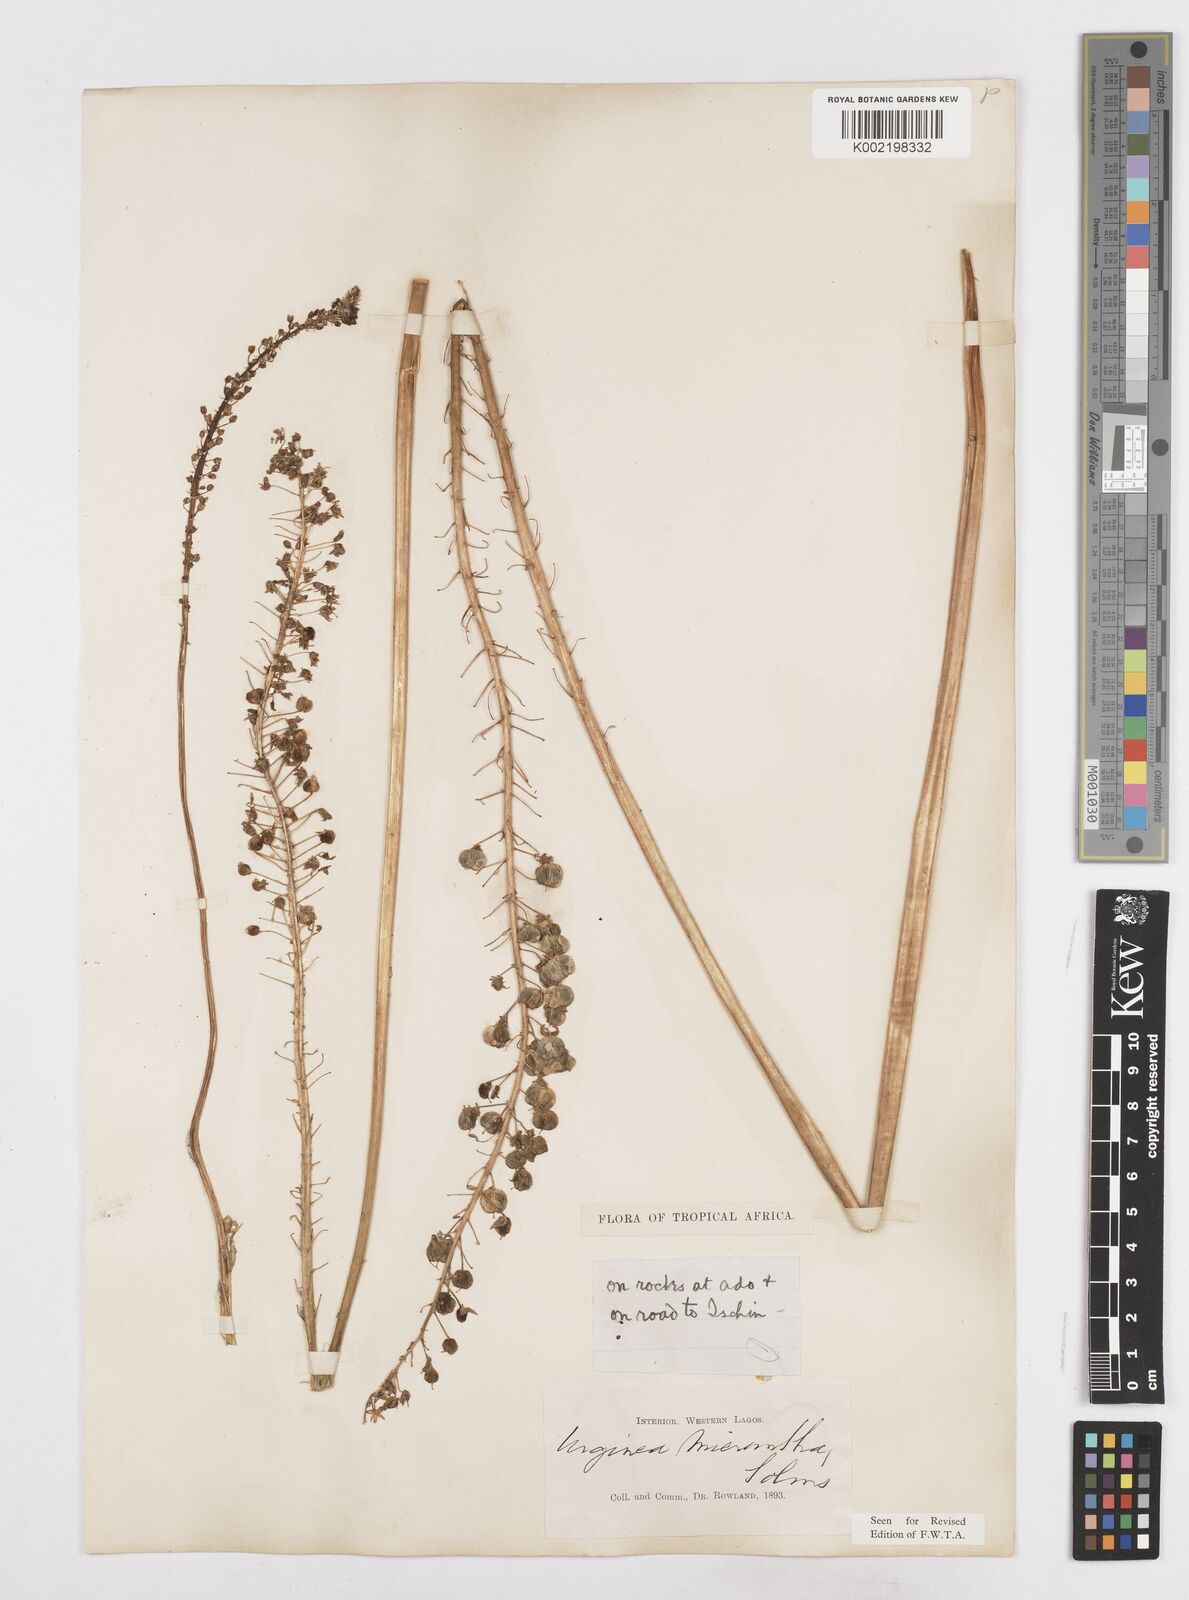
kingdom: Plantae
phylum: Tracheophyta
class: Liliopsida
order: Asparagales
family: Asparagaceae
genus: Drimia
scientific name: Drimia altissima
